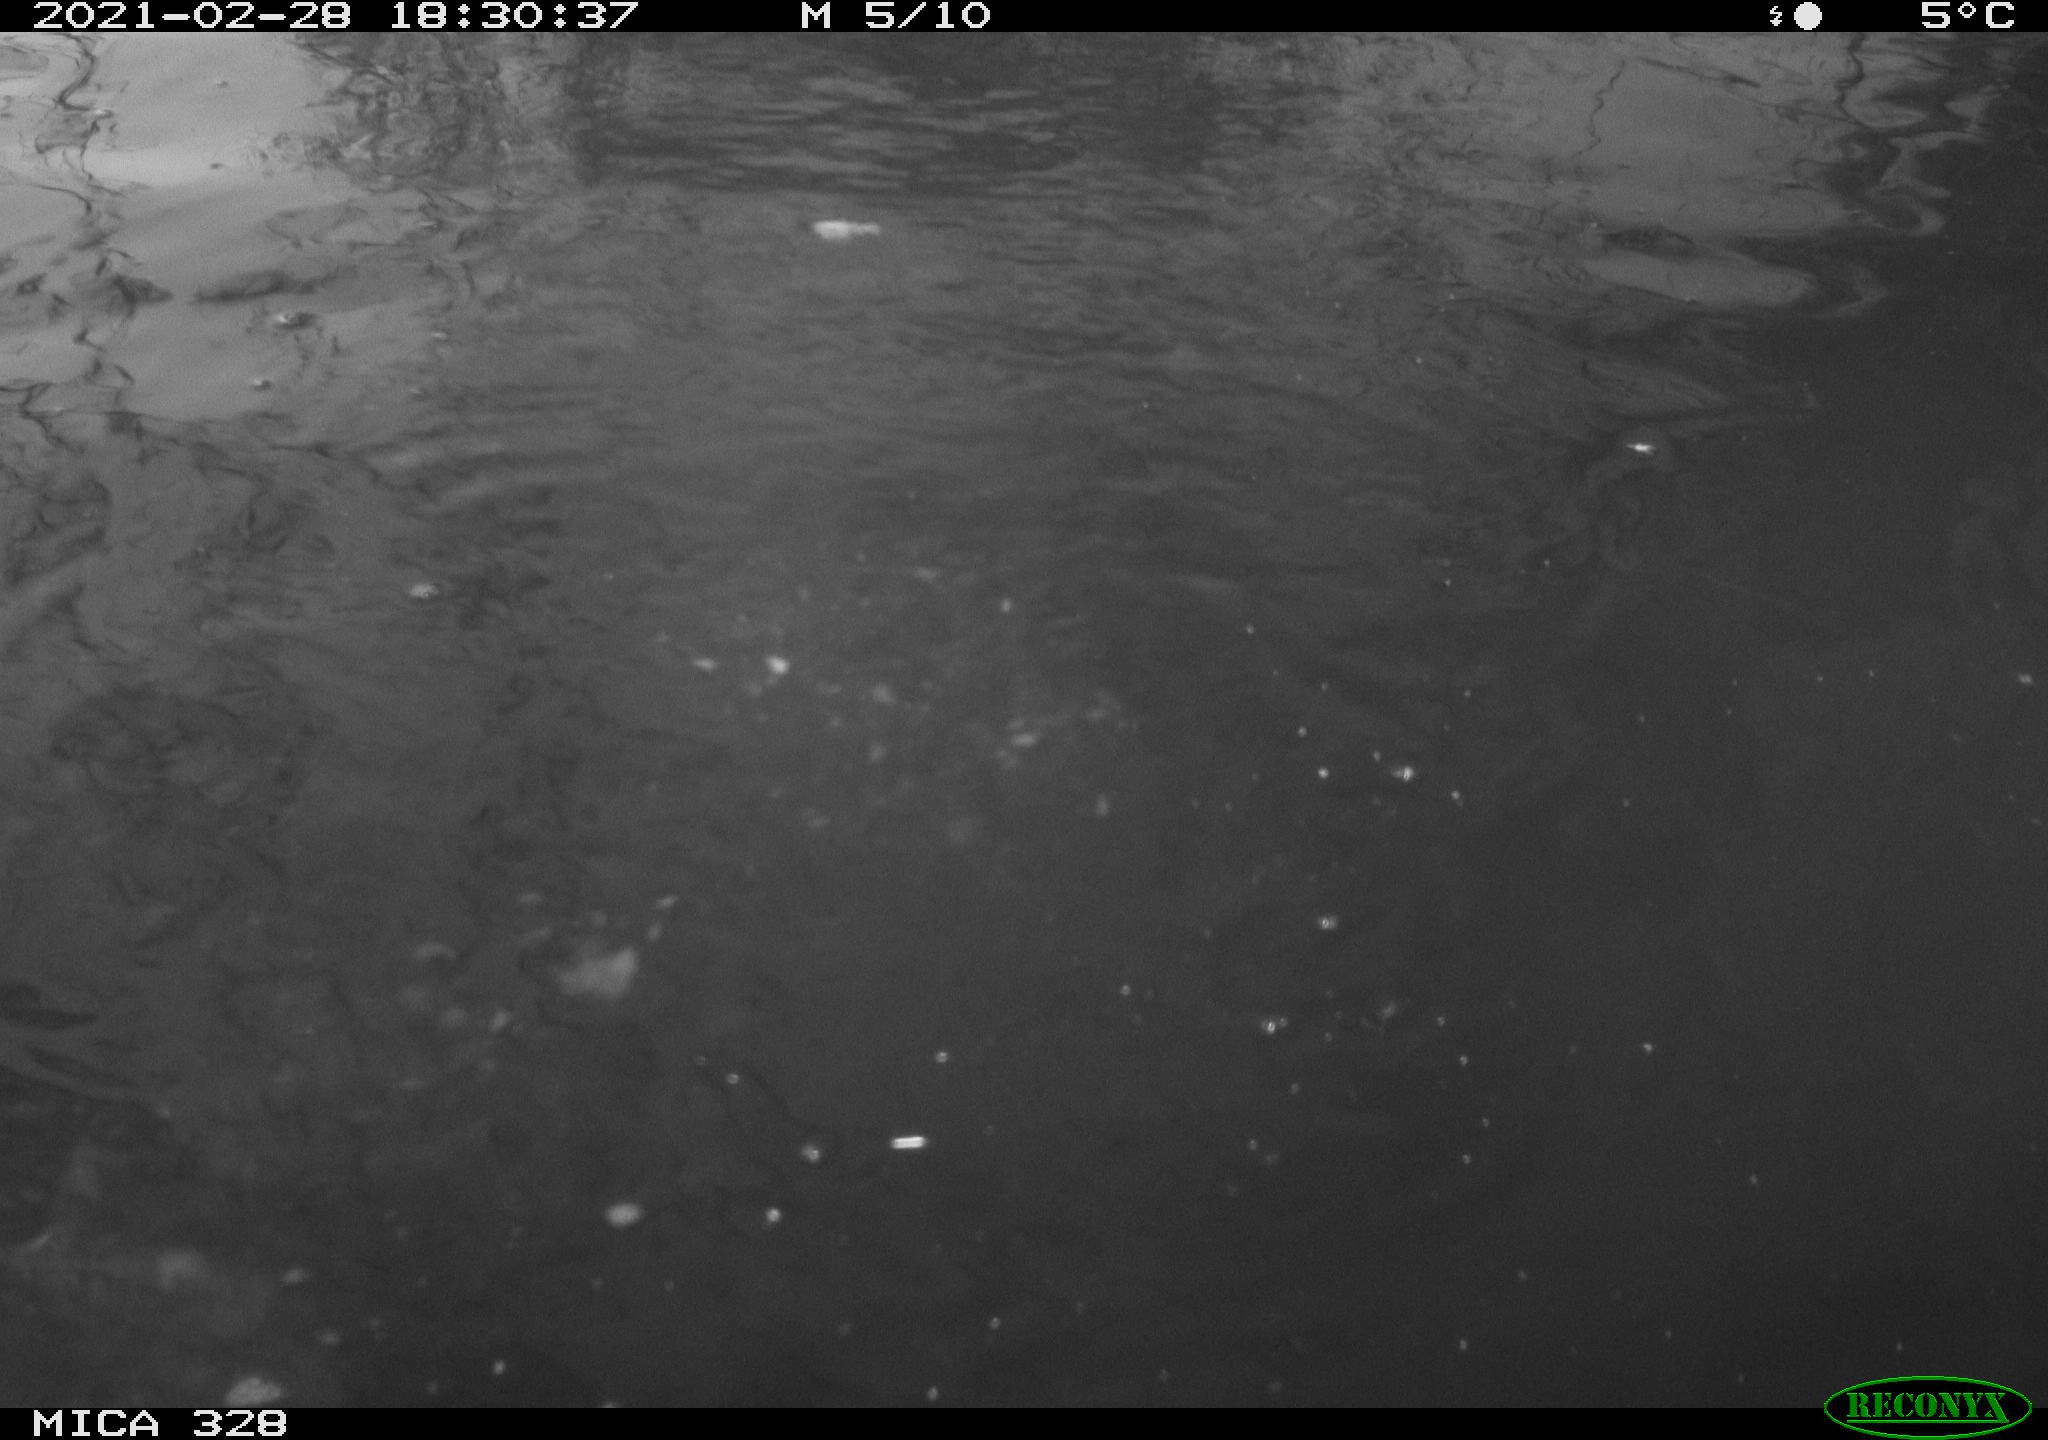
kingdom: Animalia
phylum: Chordata
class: Mammalia
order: Rodentia
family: Myocastoridae
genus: Myocastor
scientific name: Myocastor coypus
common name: Coypu
